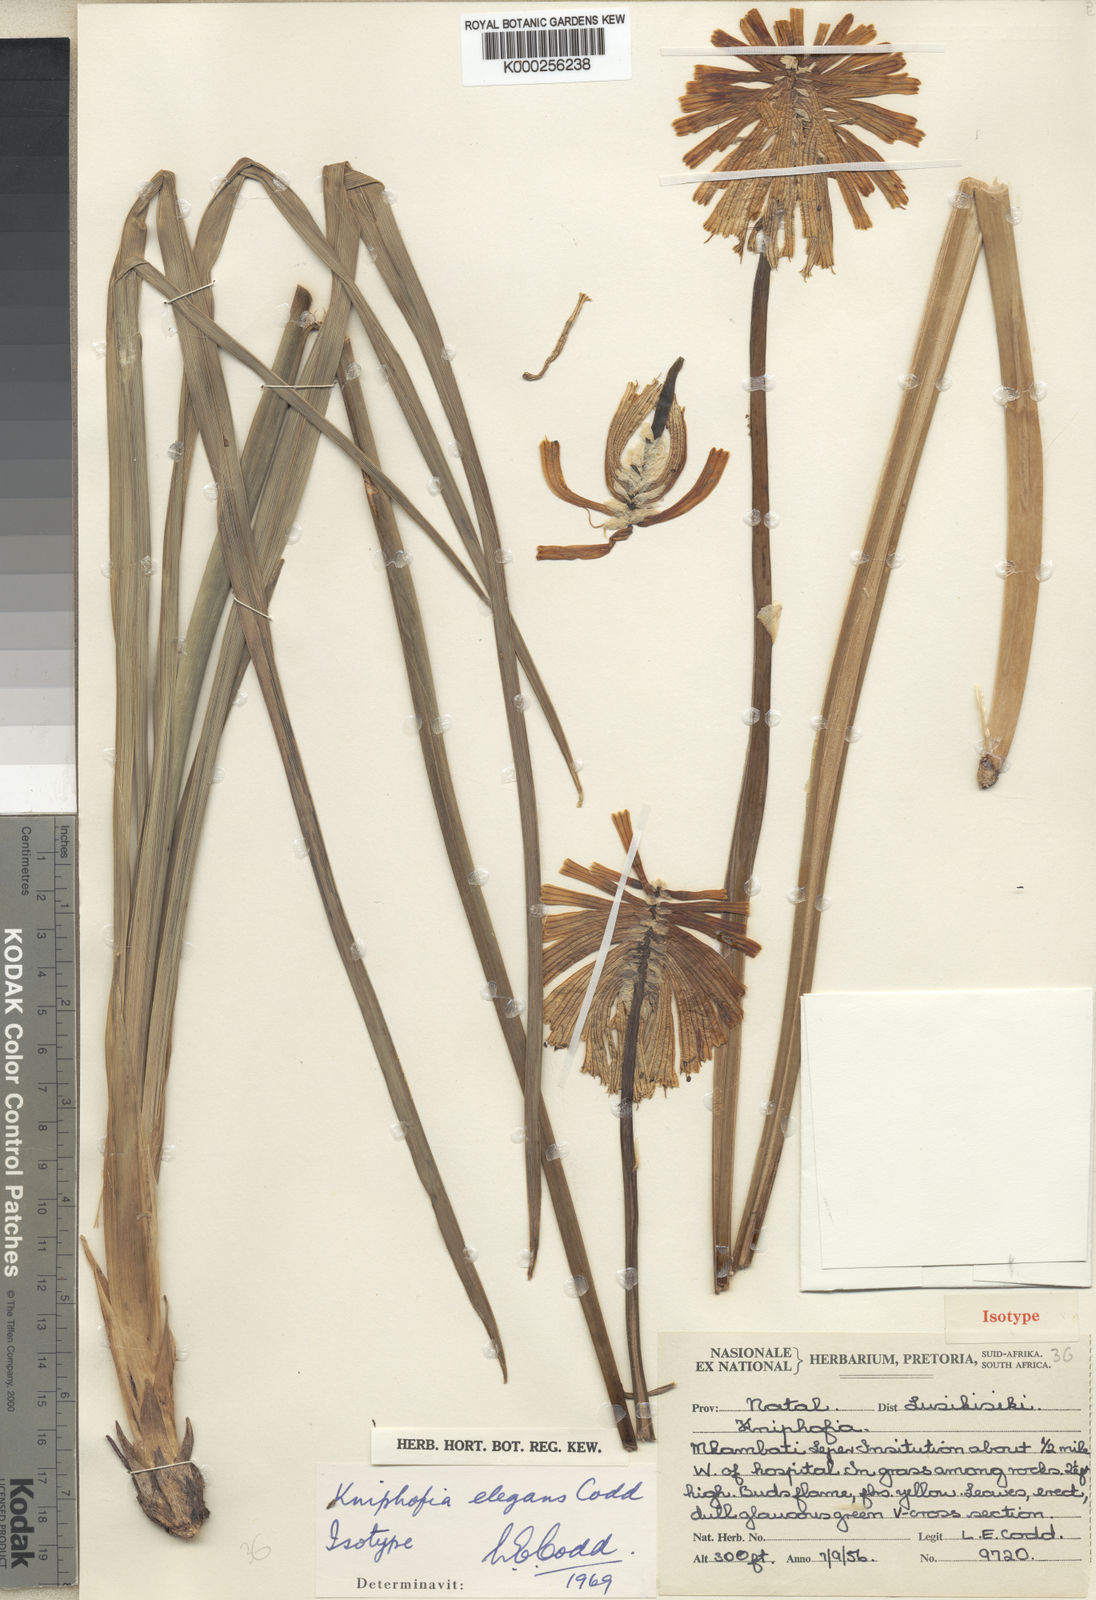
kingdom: Plantae
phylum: Tracheophyta
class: Liliopsida
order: Asparagales
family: Asphodelaceae
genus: Kniphofia
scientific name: Kniphofia coddiana
